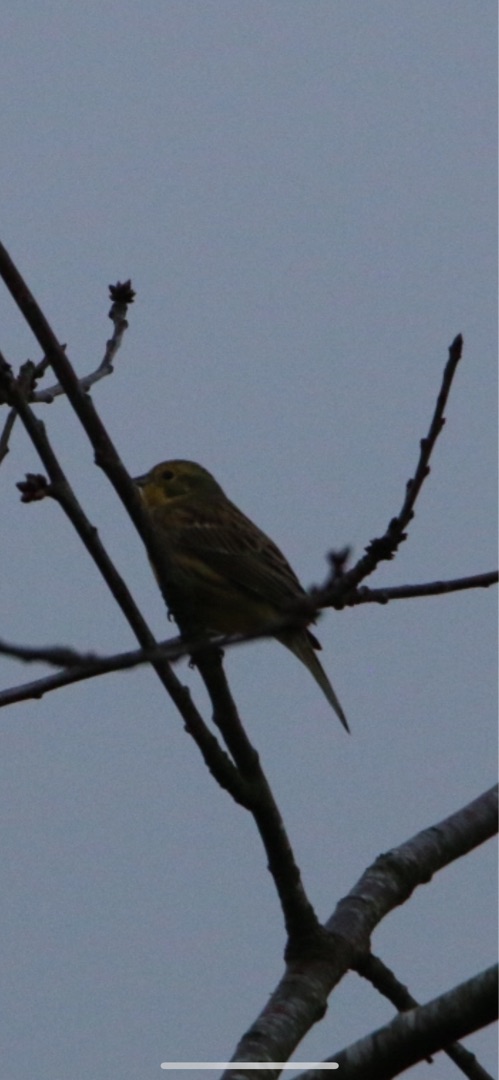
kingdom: Animalia
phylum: Chordata
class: Aves
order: Passeriformes
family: Emberizidae
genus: Emberiza
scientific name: Emberiza citrinella
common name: Gulspurv
